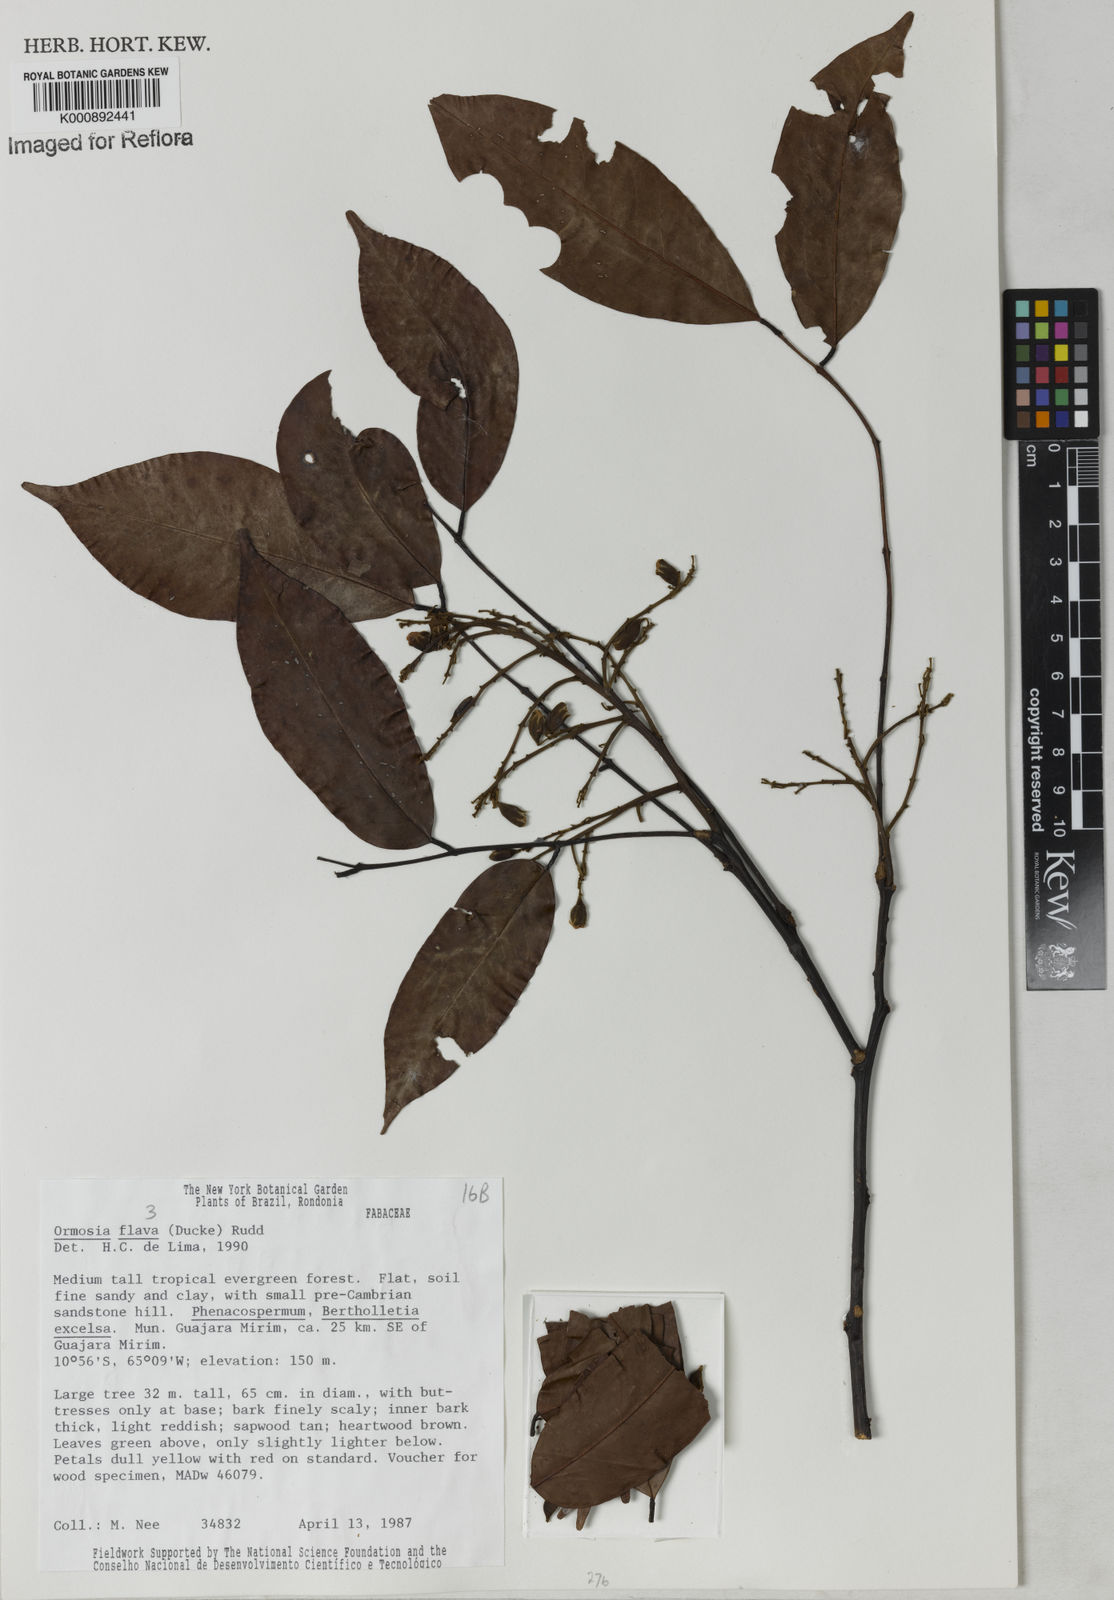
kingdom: Plantae
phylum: Tracheophyta
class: Magnoliopsida
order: Fabales
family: Fabaceae
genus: Ormosia
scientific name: Ormosia flava
